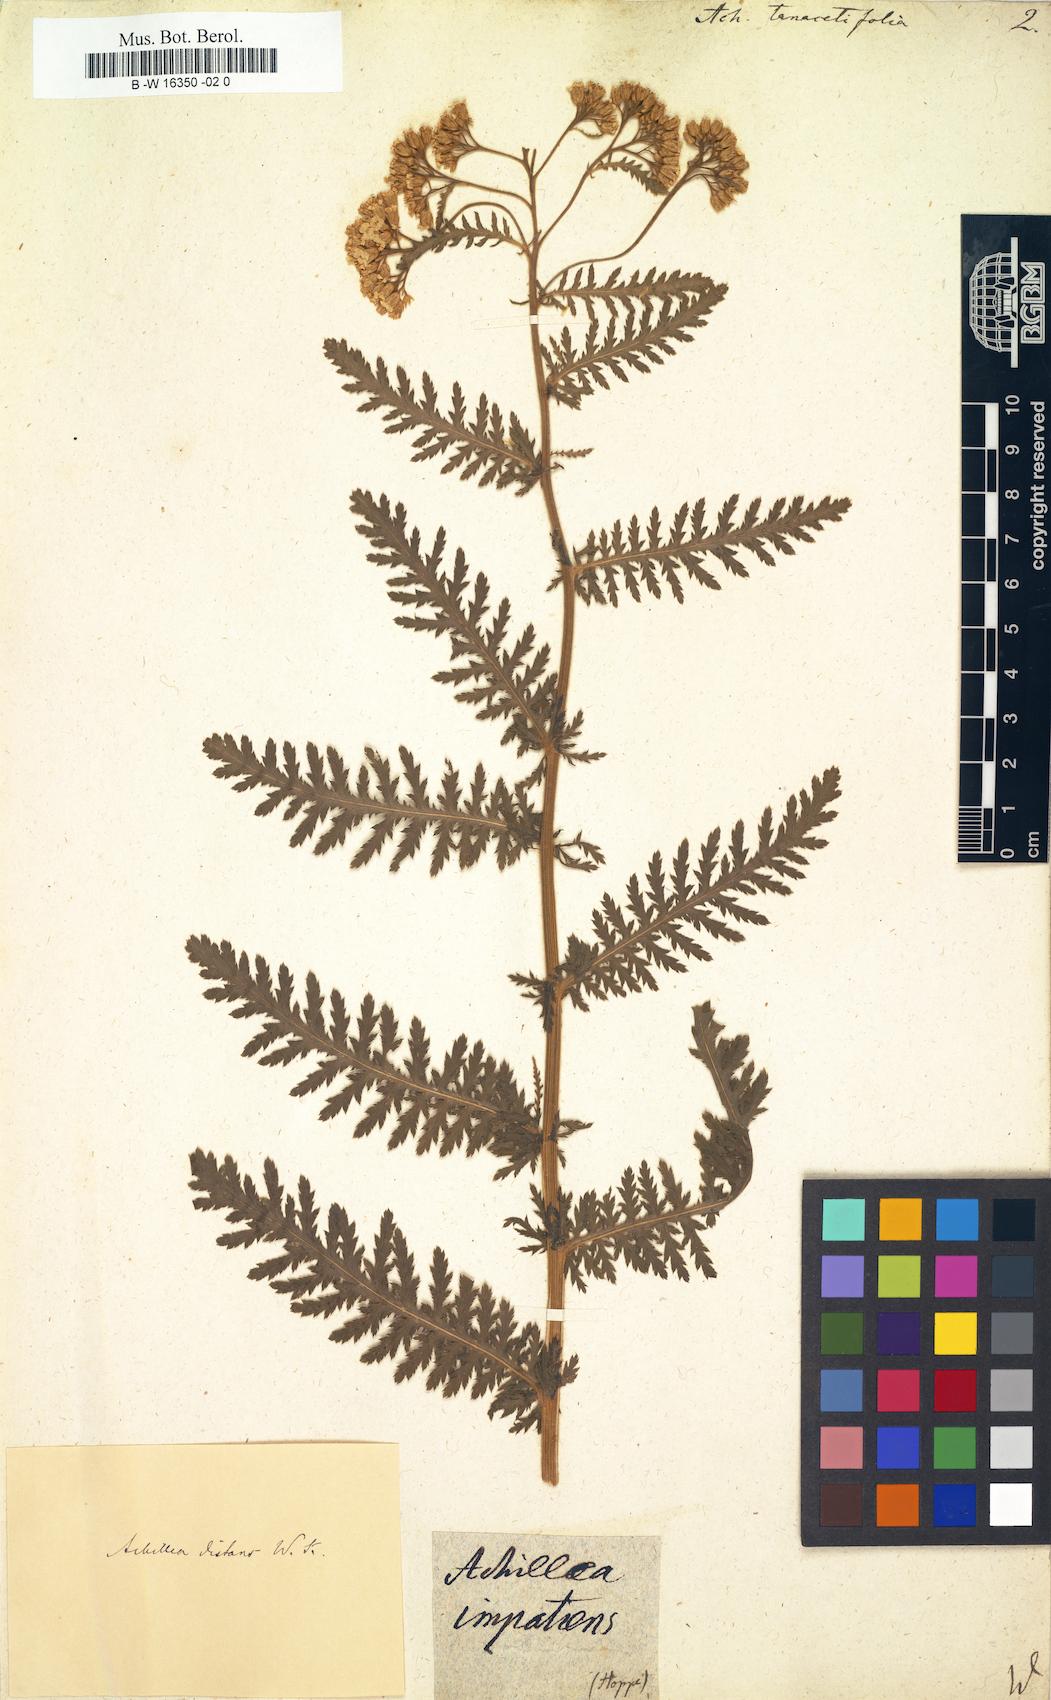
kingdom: Plantae
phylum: Tracheophyta
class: Magnoliopsida
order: Asterales
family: Asteraceae
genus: Achillea
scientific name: Achillea distans
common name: Tall yarrow
